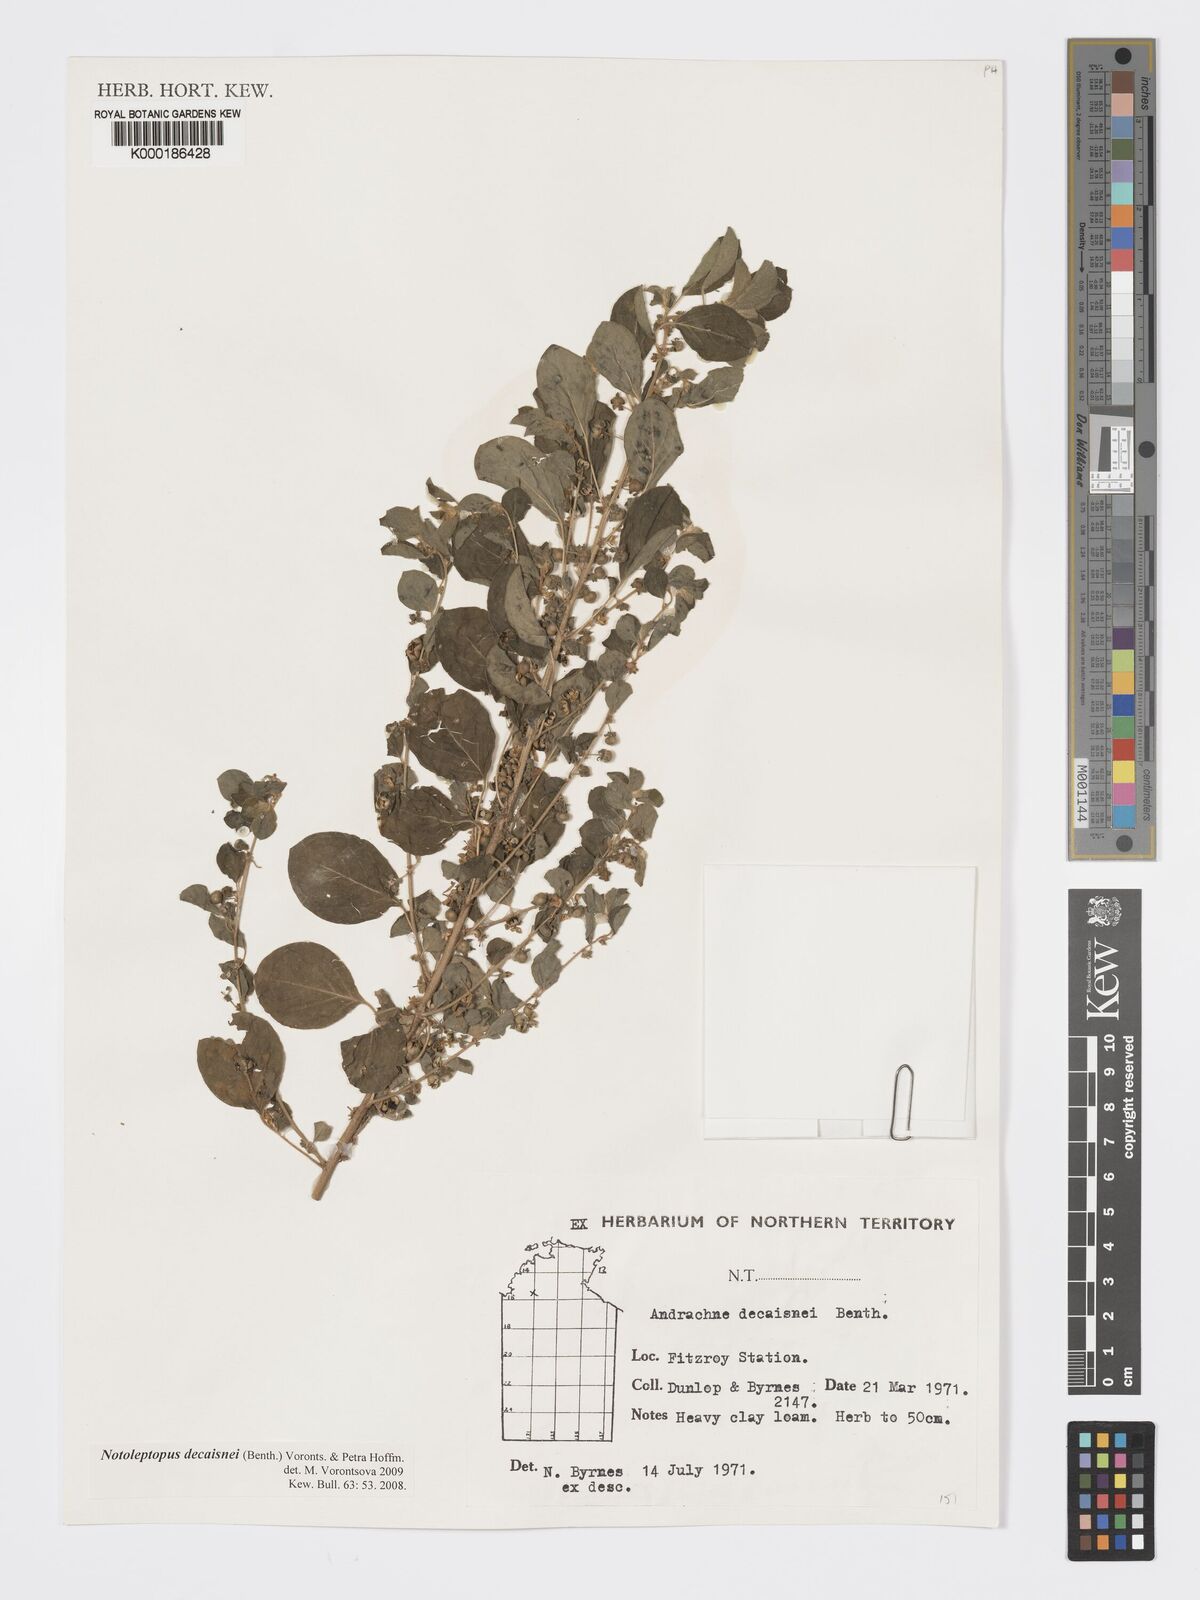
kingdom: Plantae
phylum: Tracheophyta
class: Magnoliopsida
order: Malpighiales
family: Phyllanthaceae
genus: Andrachne
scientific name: Andrachne
